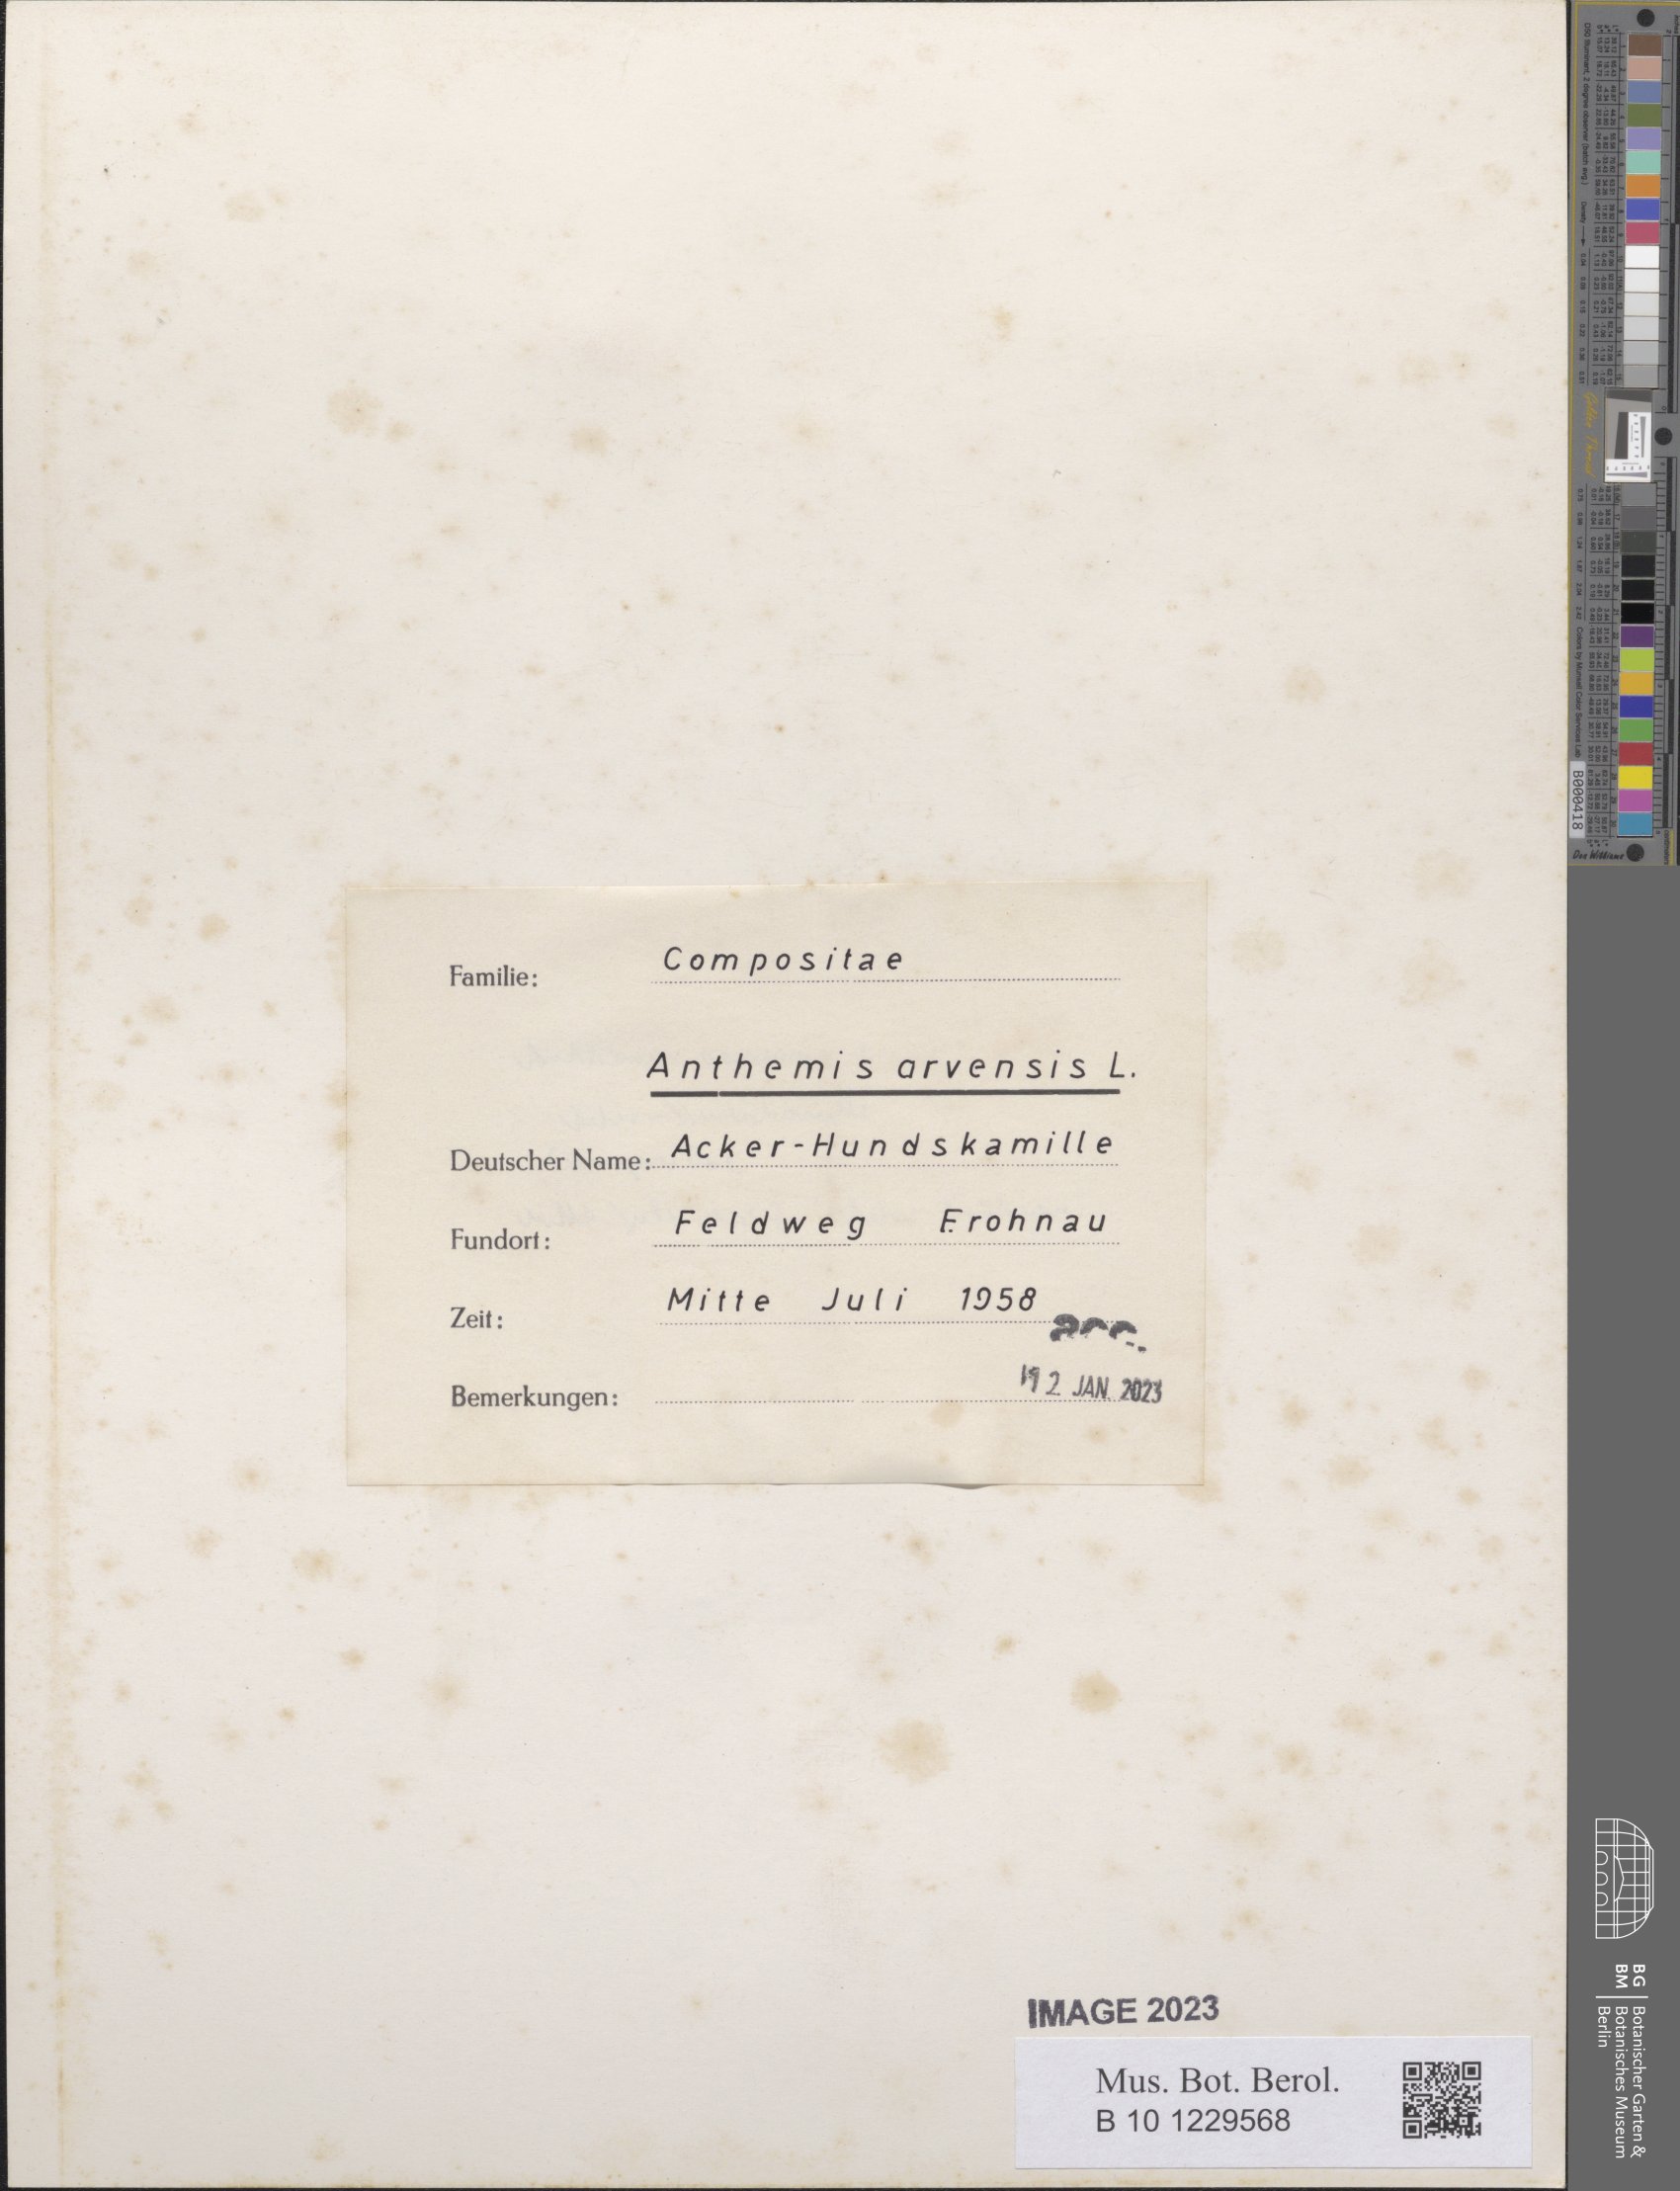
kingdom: Plantae
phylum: Tracheophyta
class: Magnoliopsida
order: Asterales
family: Asteraceae
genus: Anthemis
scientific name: Anthemis arvensis
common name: Corn chamomile
